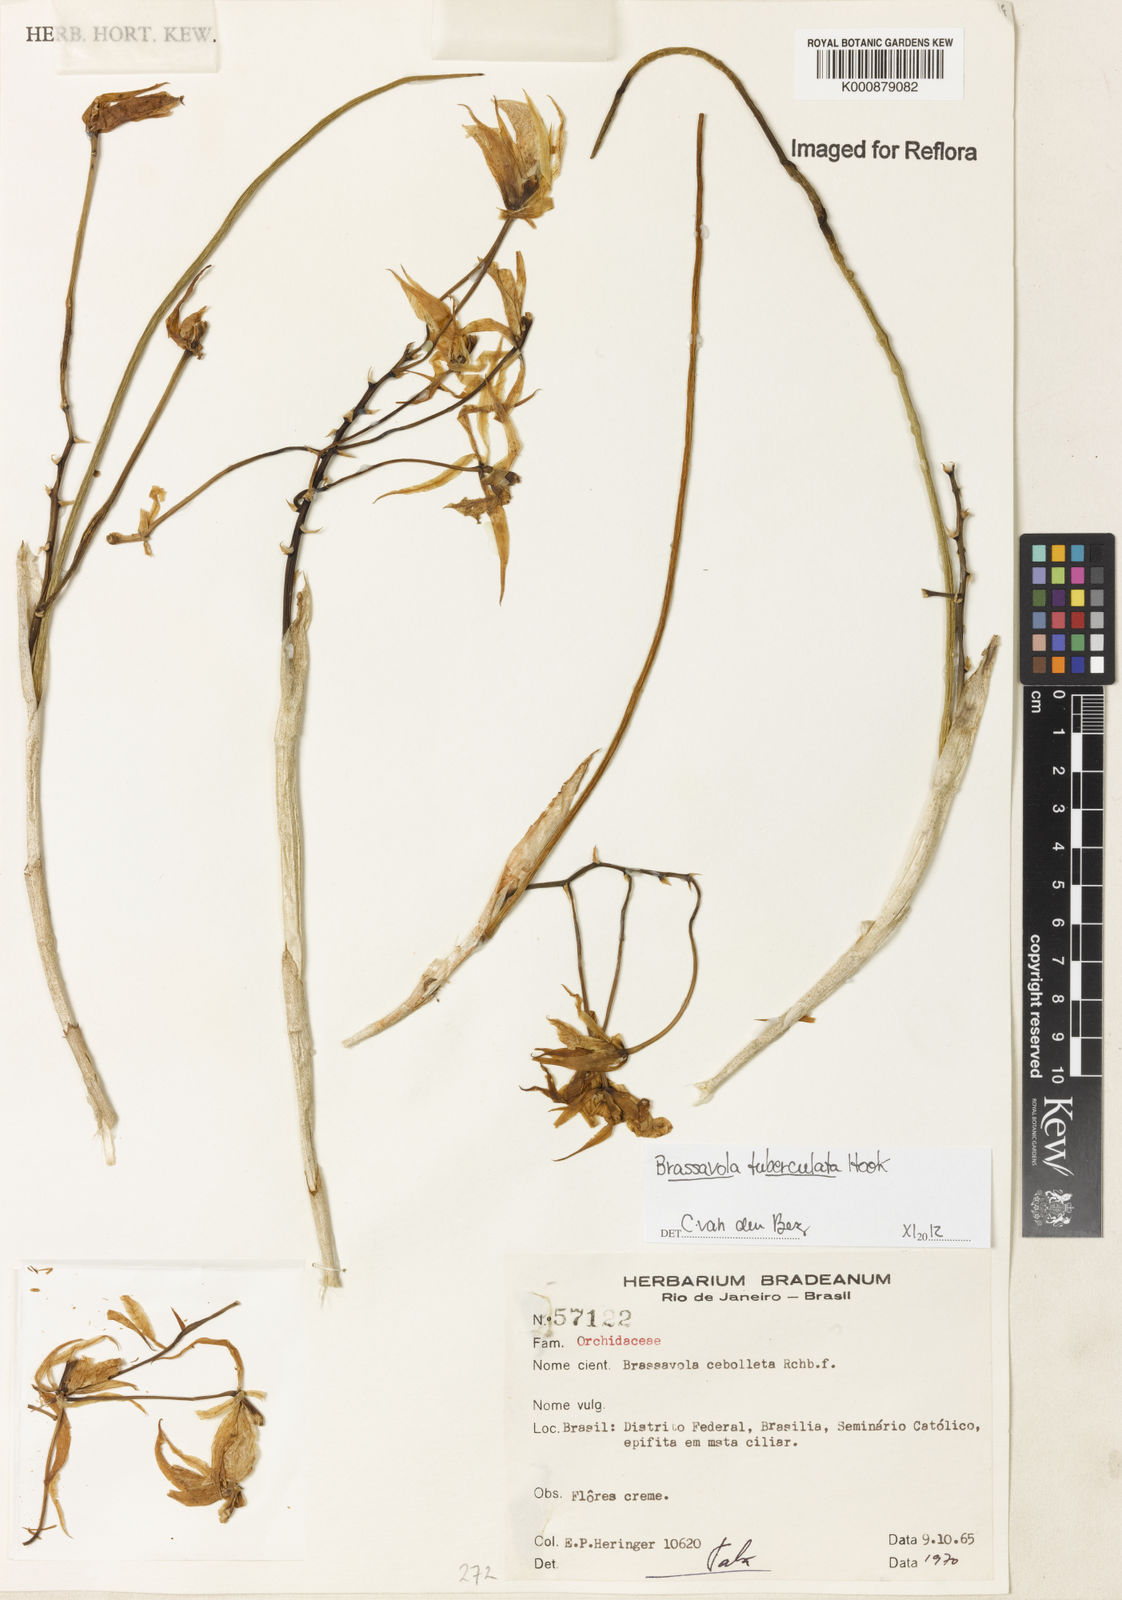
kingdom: Plantae
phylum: Tracheophyta
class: Liliopsida
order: Asparagales
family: Orchidaceae
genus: Brassavola
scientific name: Brassavola tuberculata
